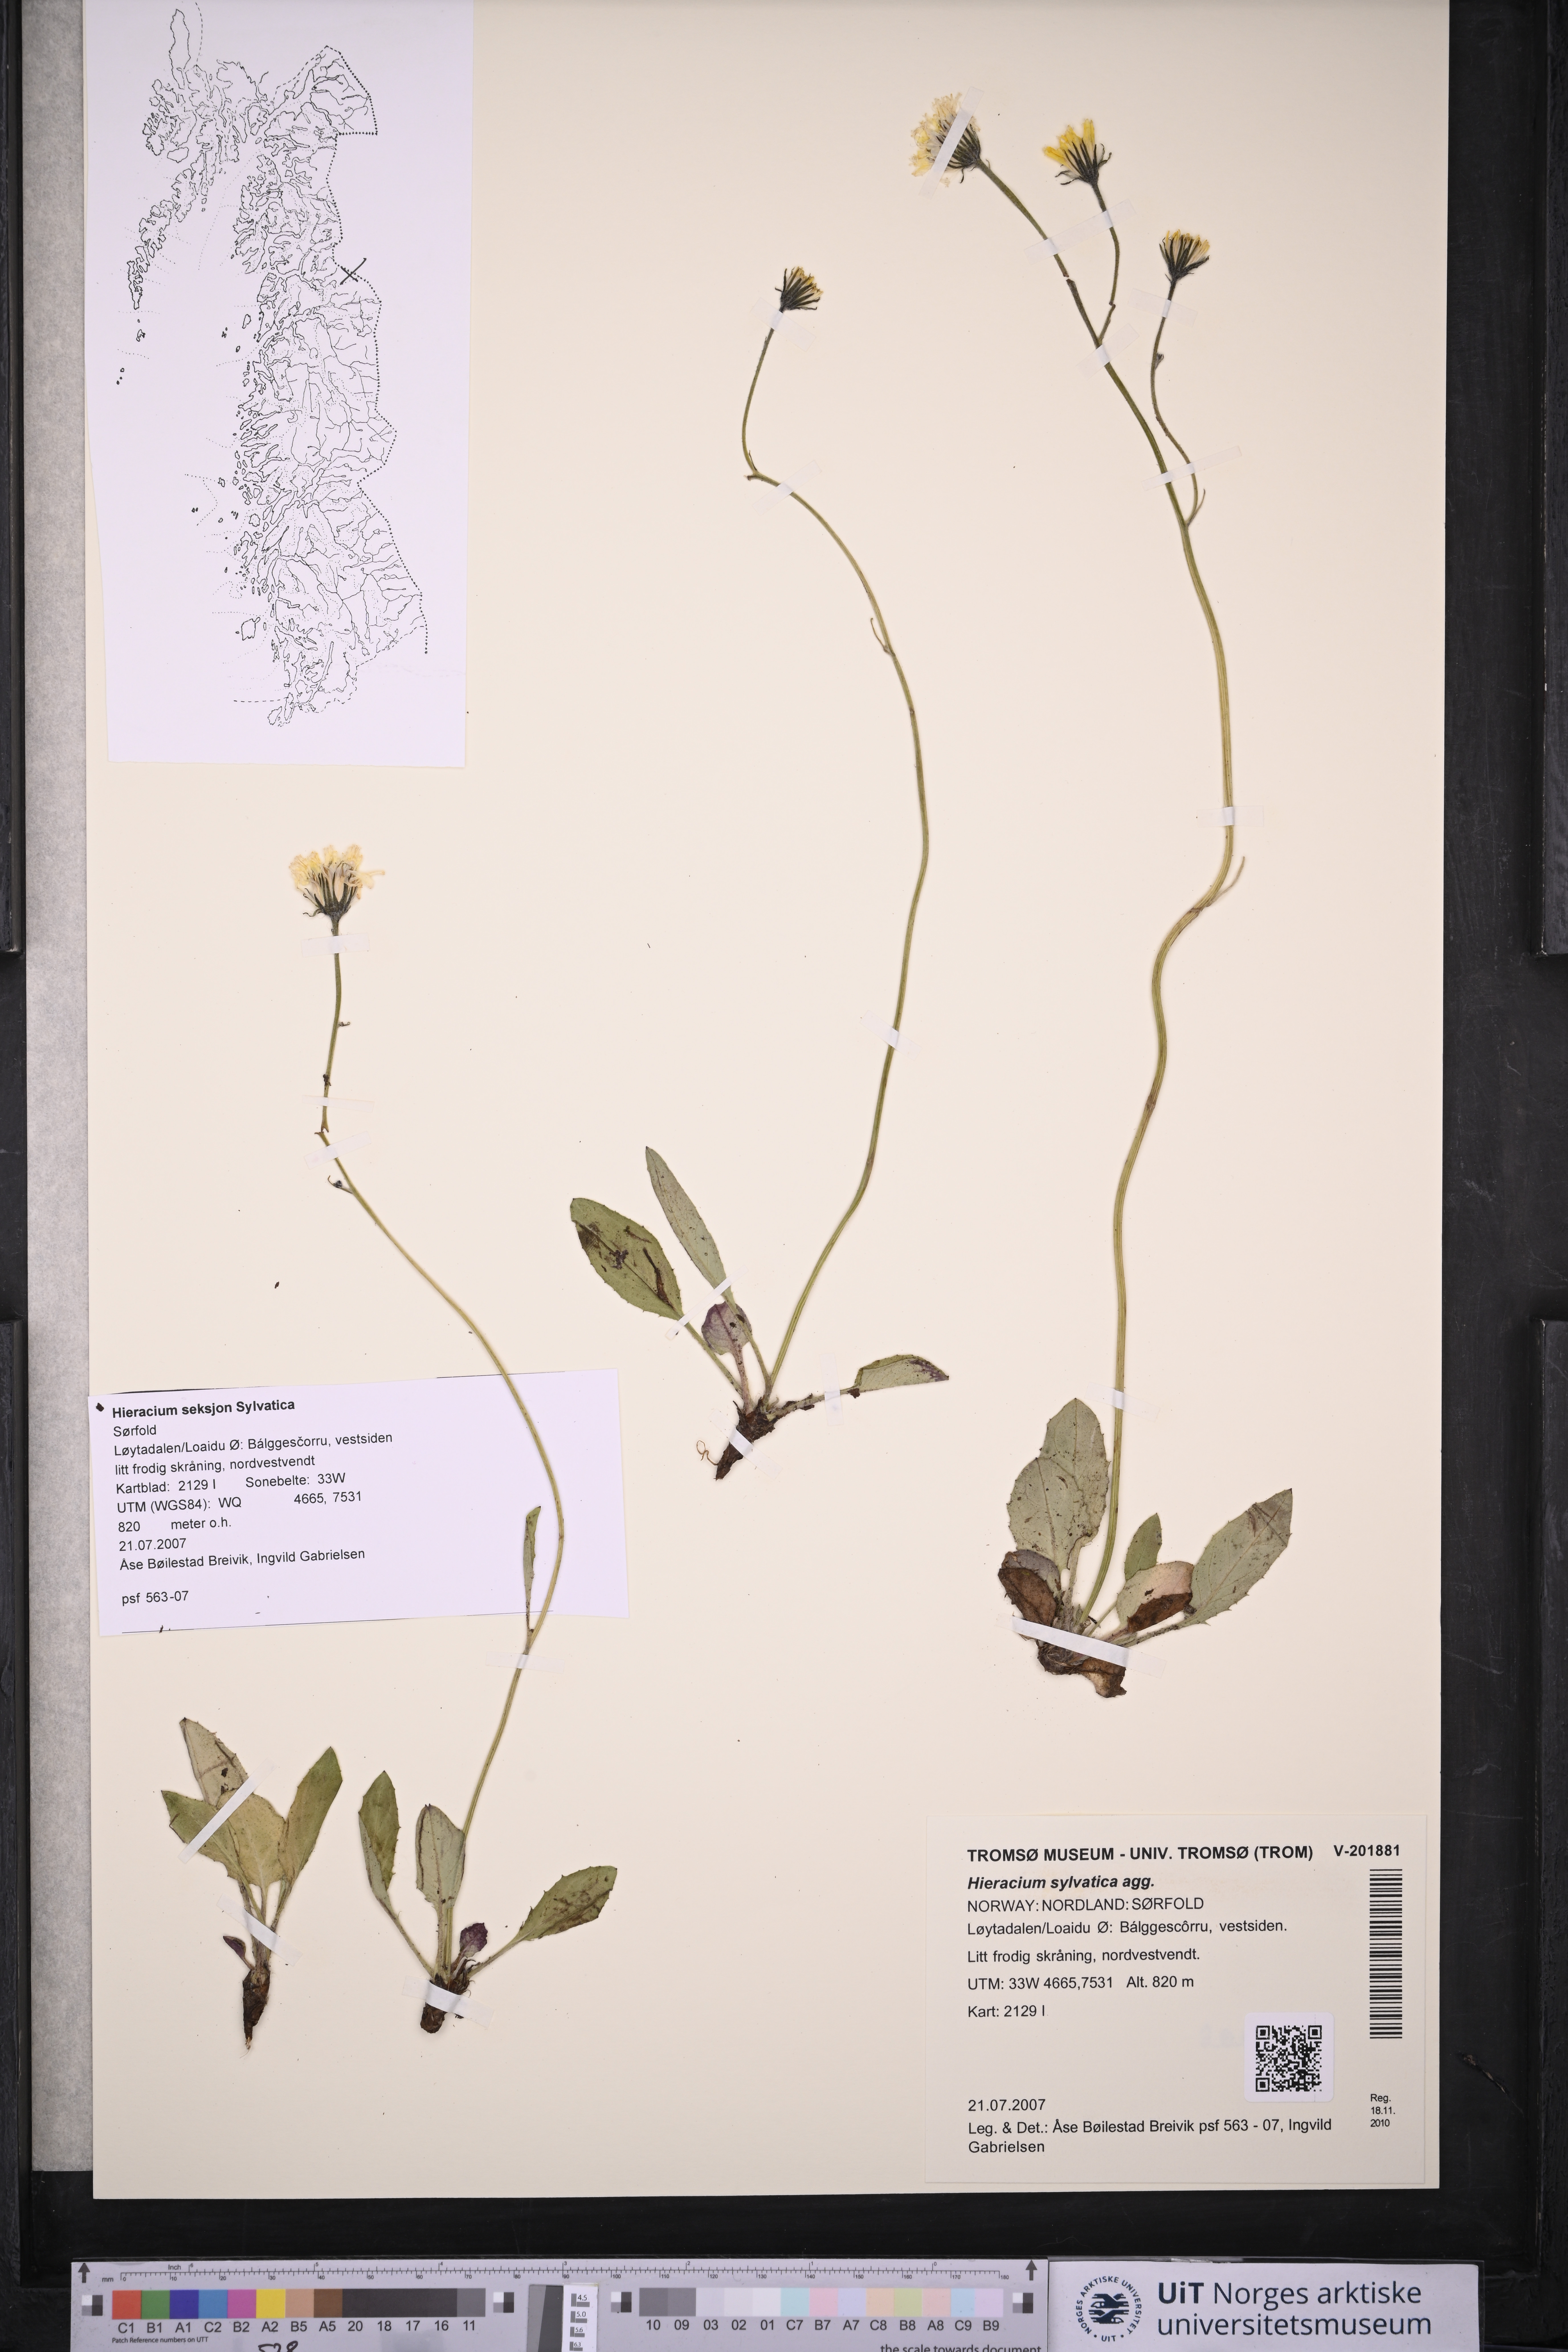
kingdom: Plantae
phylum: Tracheophyta
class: Magnoliopsida
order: Asterales
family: Asteraceae
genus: Hieracium
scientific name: Hieracium
